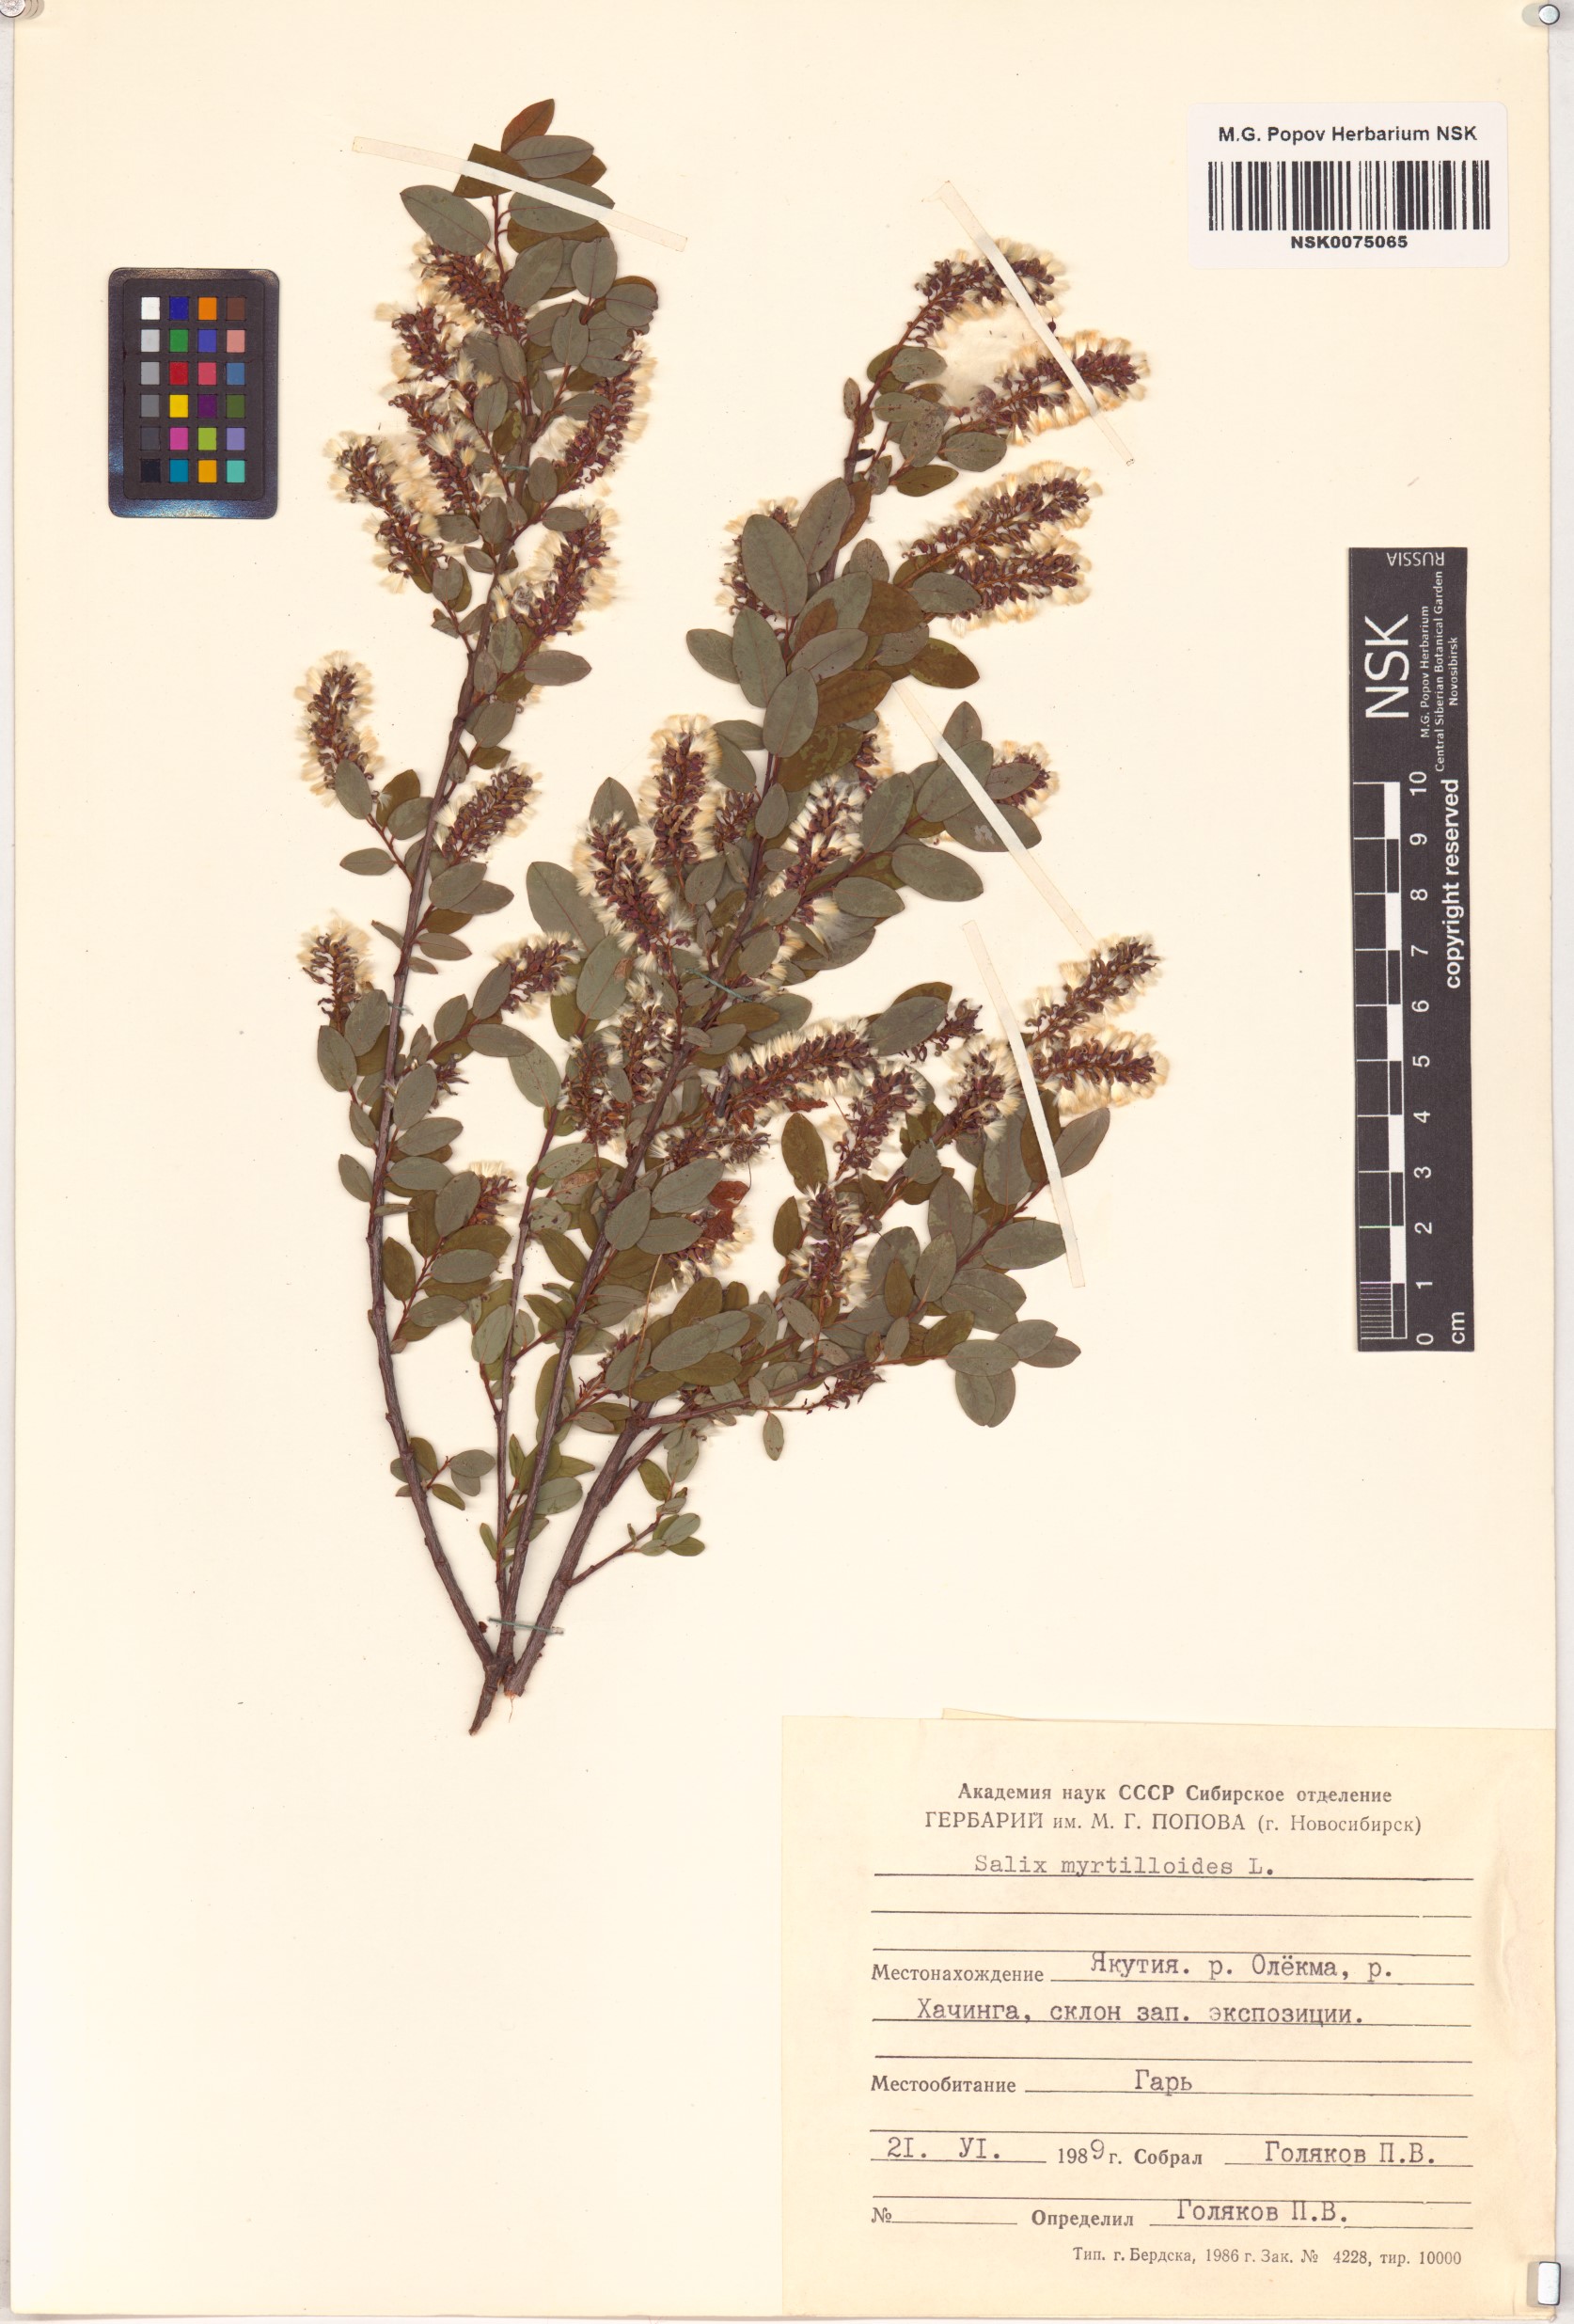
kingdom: Plantae
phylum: Tracheophyta
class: Magnoliopsida
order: Malpighiales
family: Salicaceae
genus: Salix
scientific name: Salix myrtilloides
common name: Myrtle-leaved willow
